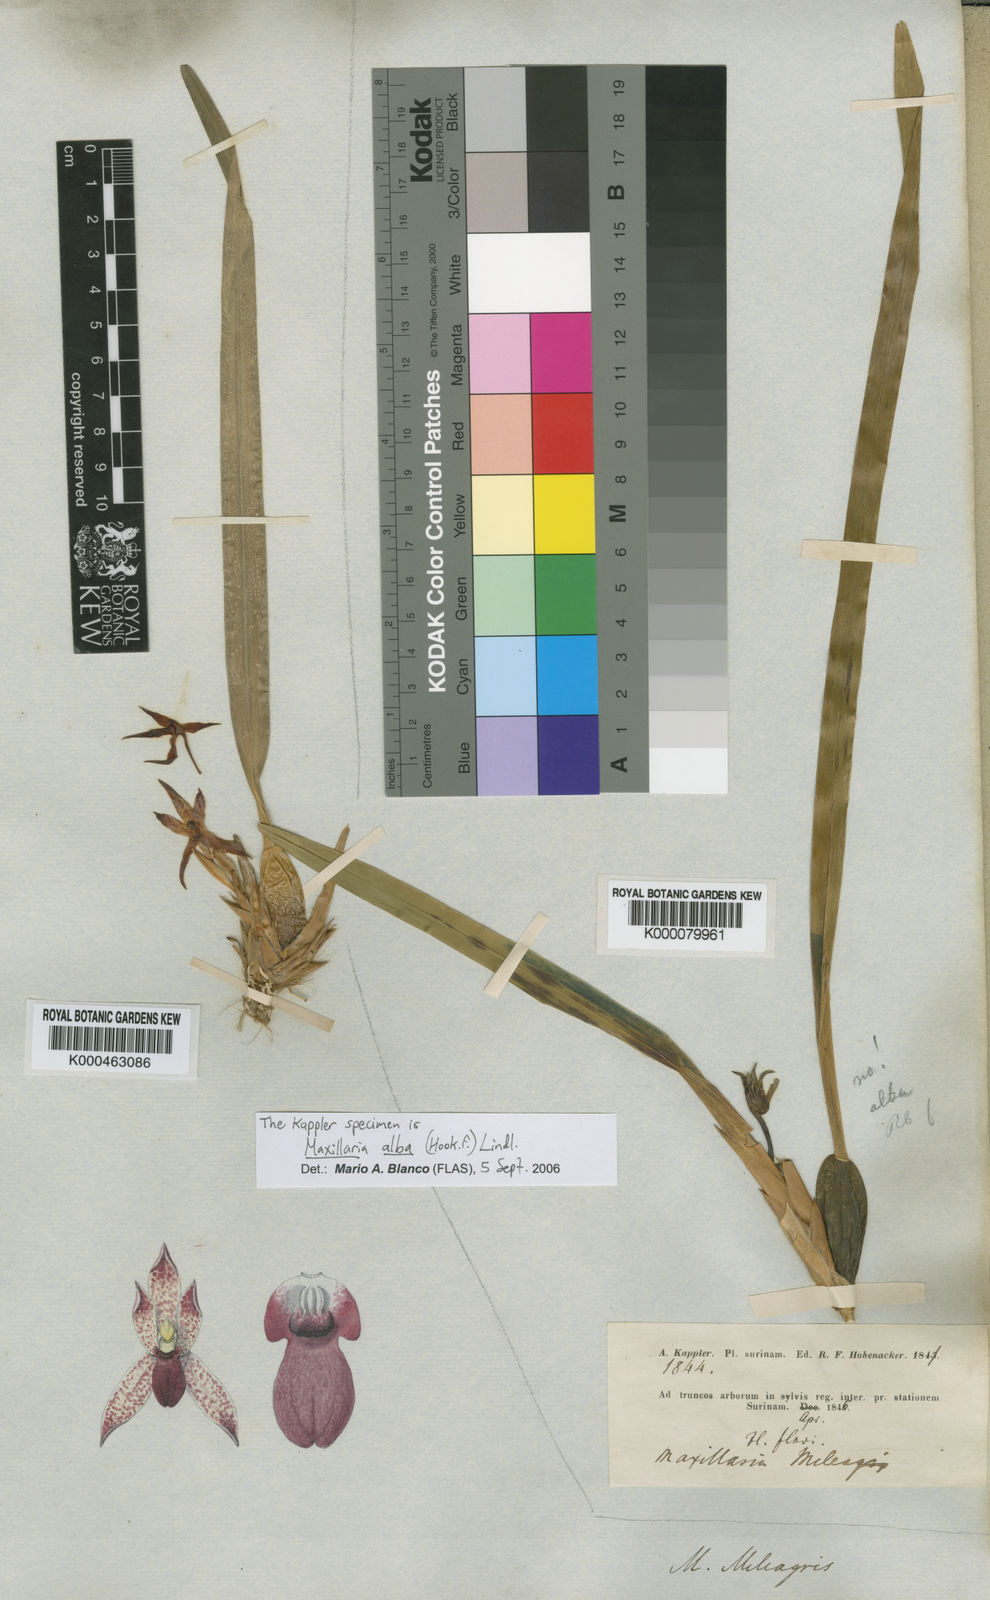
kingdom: Plantae
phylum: Tracheophyta
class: Liliopsida
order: Asparagales
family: Orchidaceae
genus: Maxillaria
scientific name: Maxillaria meleagris
